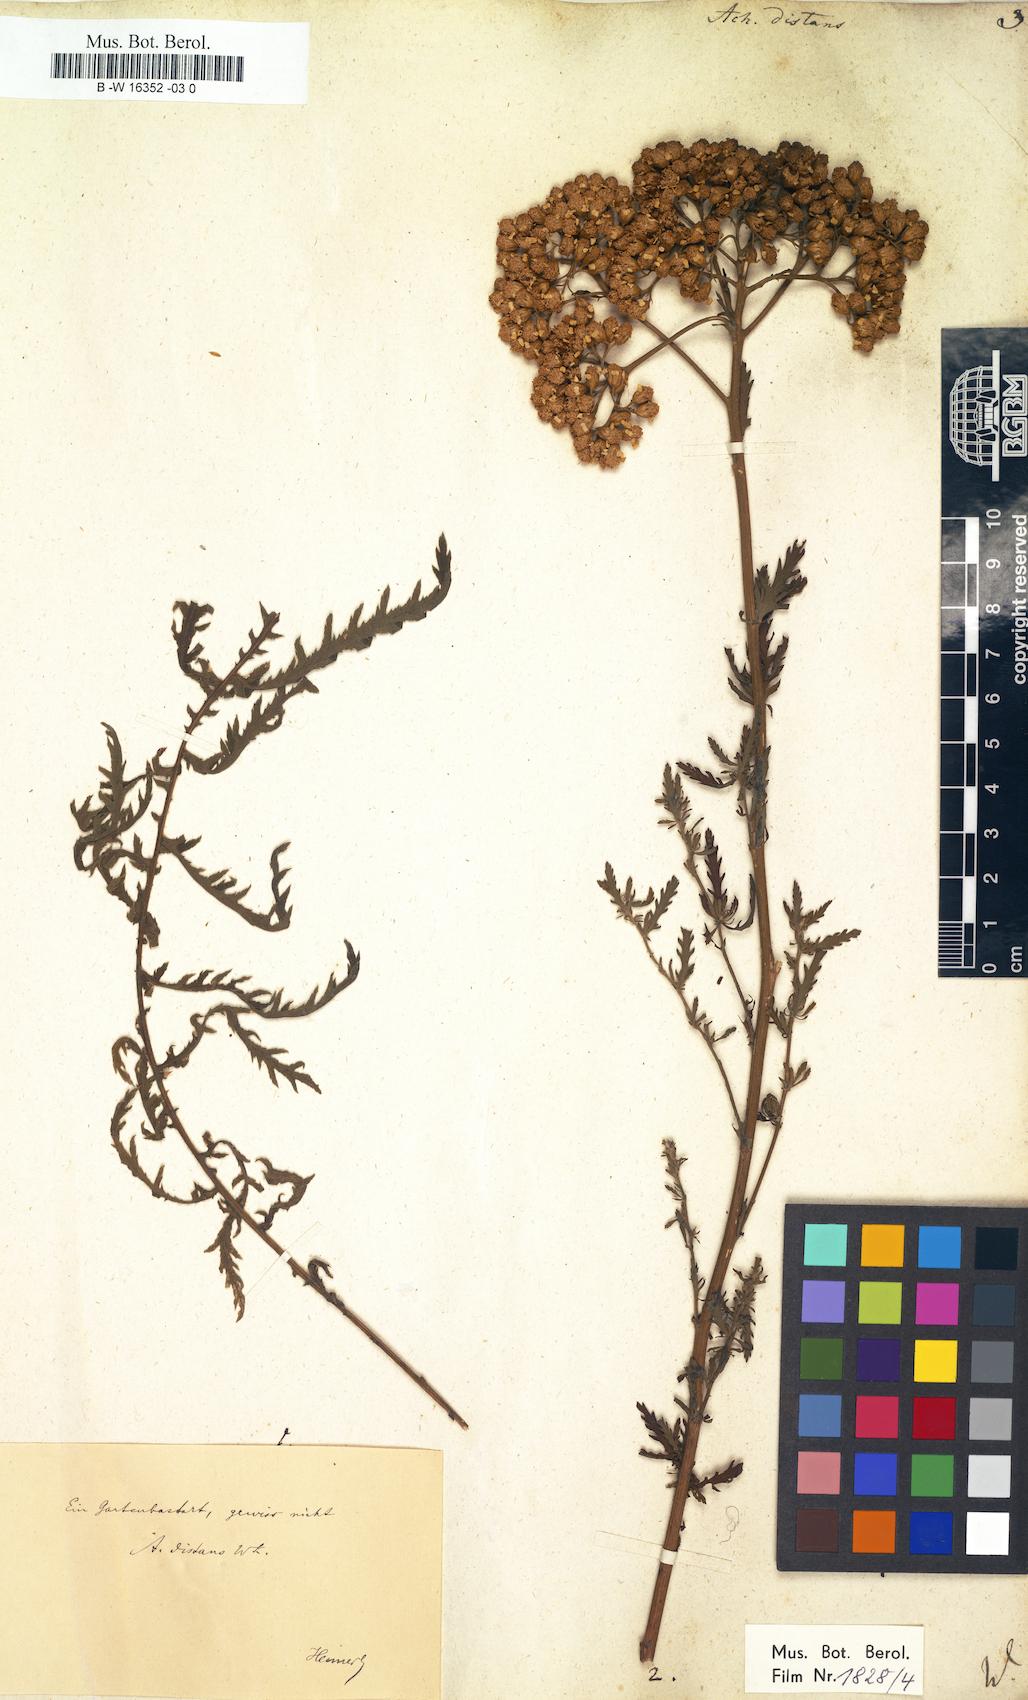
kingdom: Plantae
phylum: Tracheophyta
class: Magnoliopsida
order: Asterales
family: Asteraceae
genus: Achillea
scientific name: Achillea distans
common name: Tall yarrow
